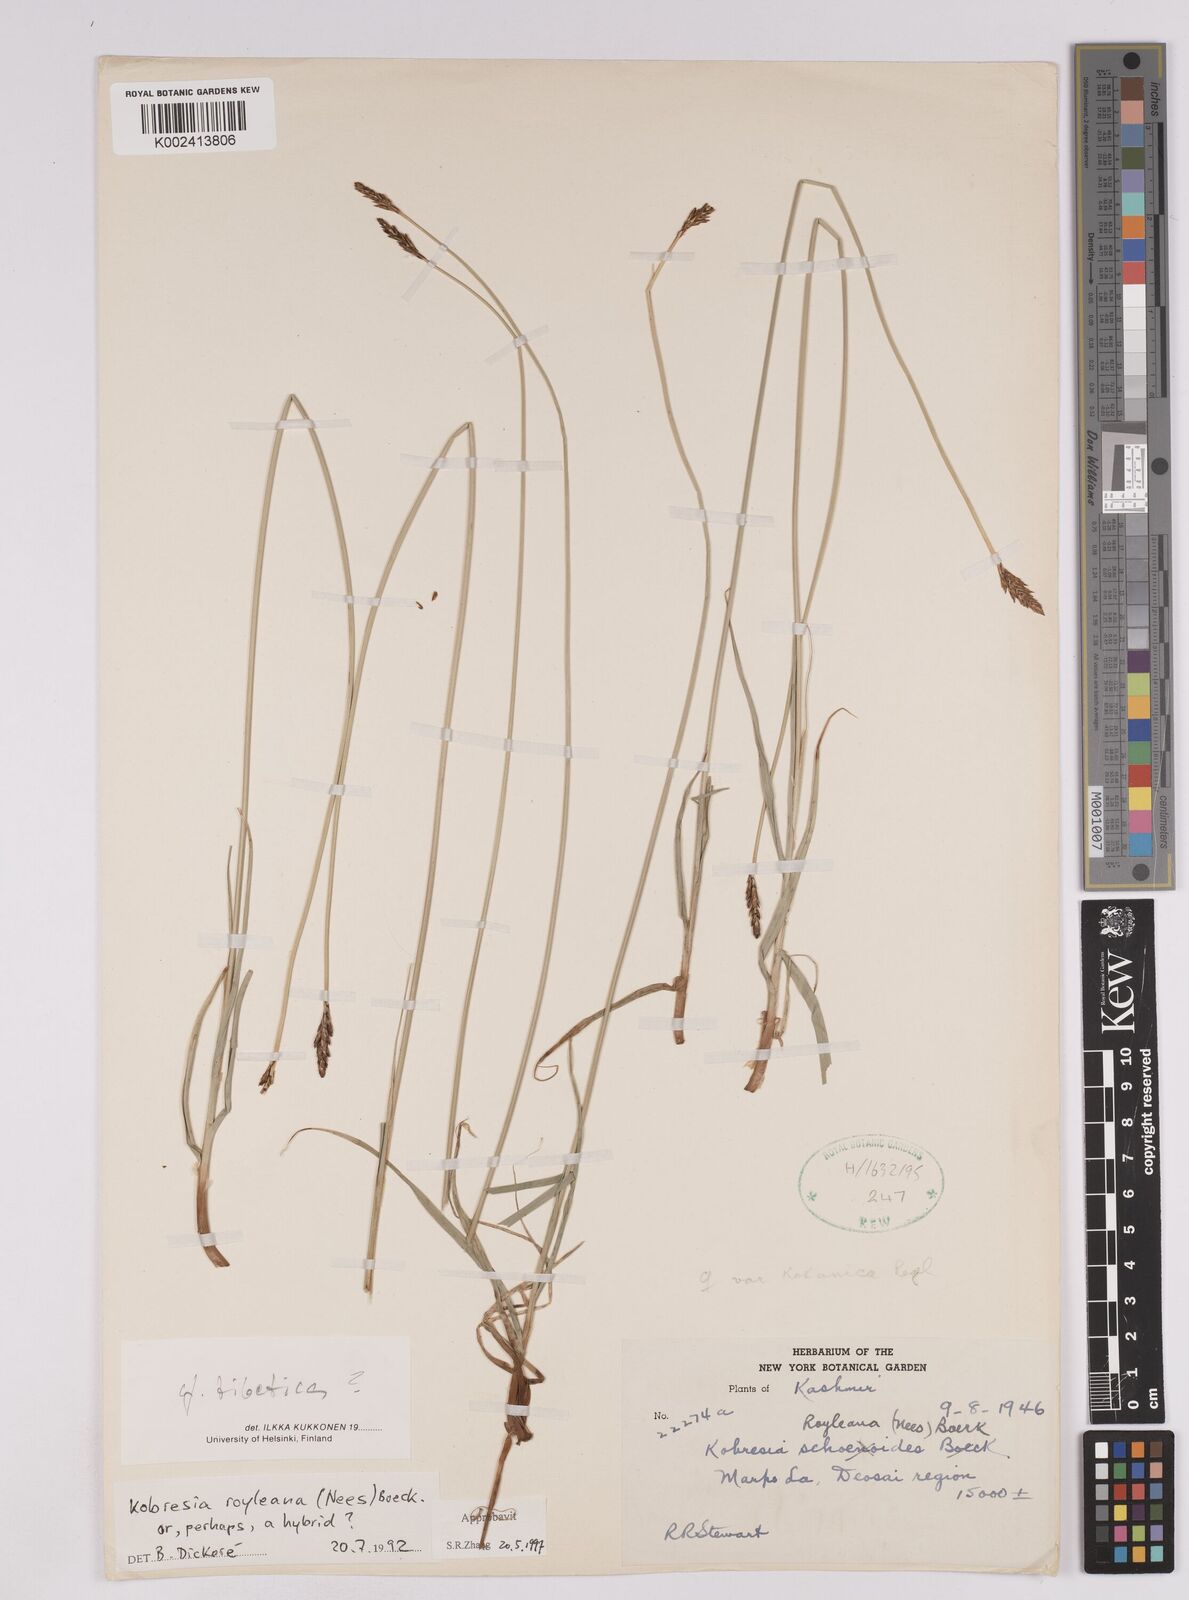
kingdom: Plantae
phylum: Tracheophyta
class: Liliopsida
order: Poales
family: Cyperaceae
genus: Carex
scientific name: Carex kokanica
